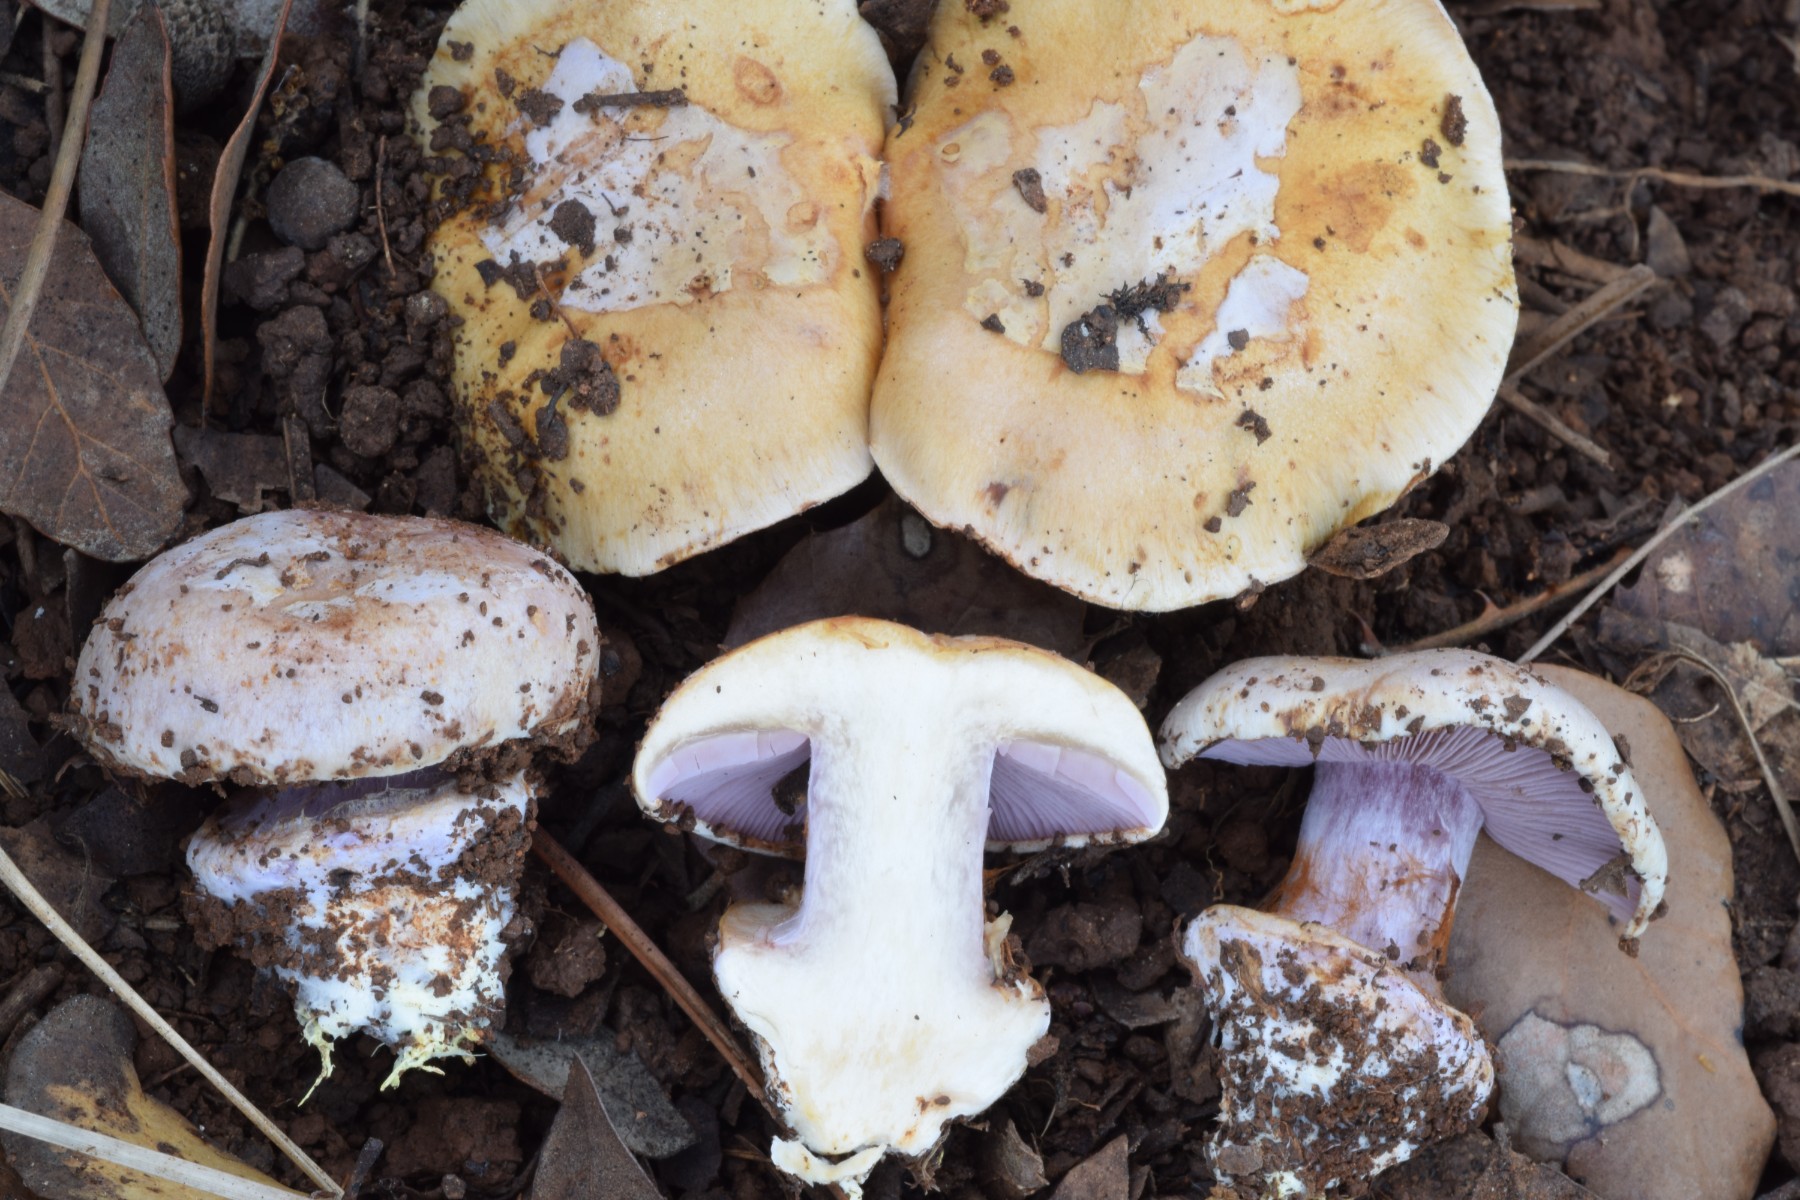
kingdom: Fungi
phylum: Basidiomycota
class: Agaricomycetes
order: Agaricales
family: Cortinariaceae
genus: Cortinarius
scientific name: Cortinarius aurantiorufus
